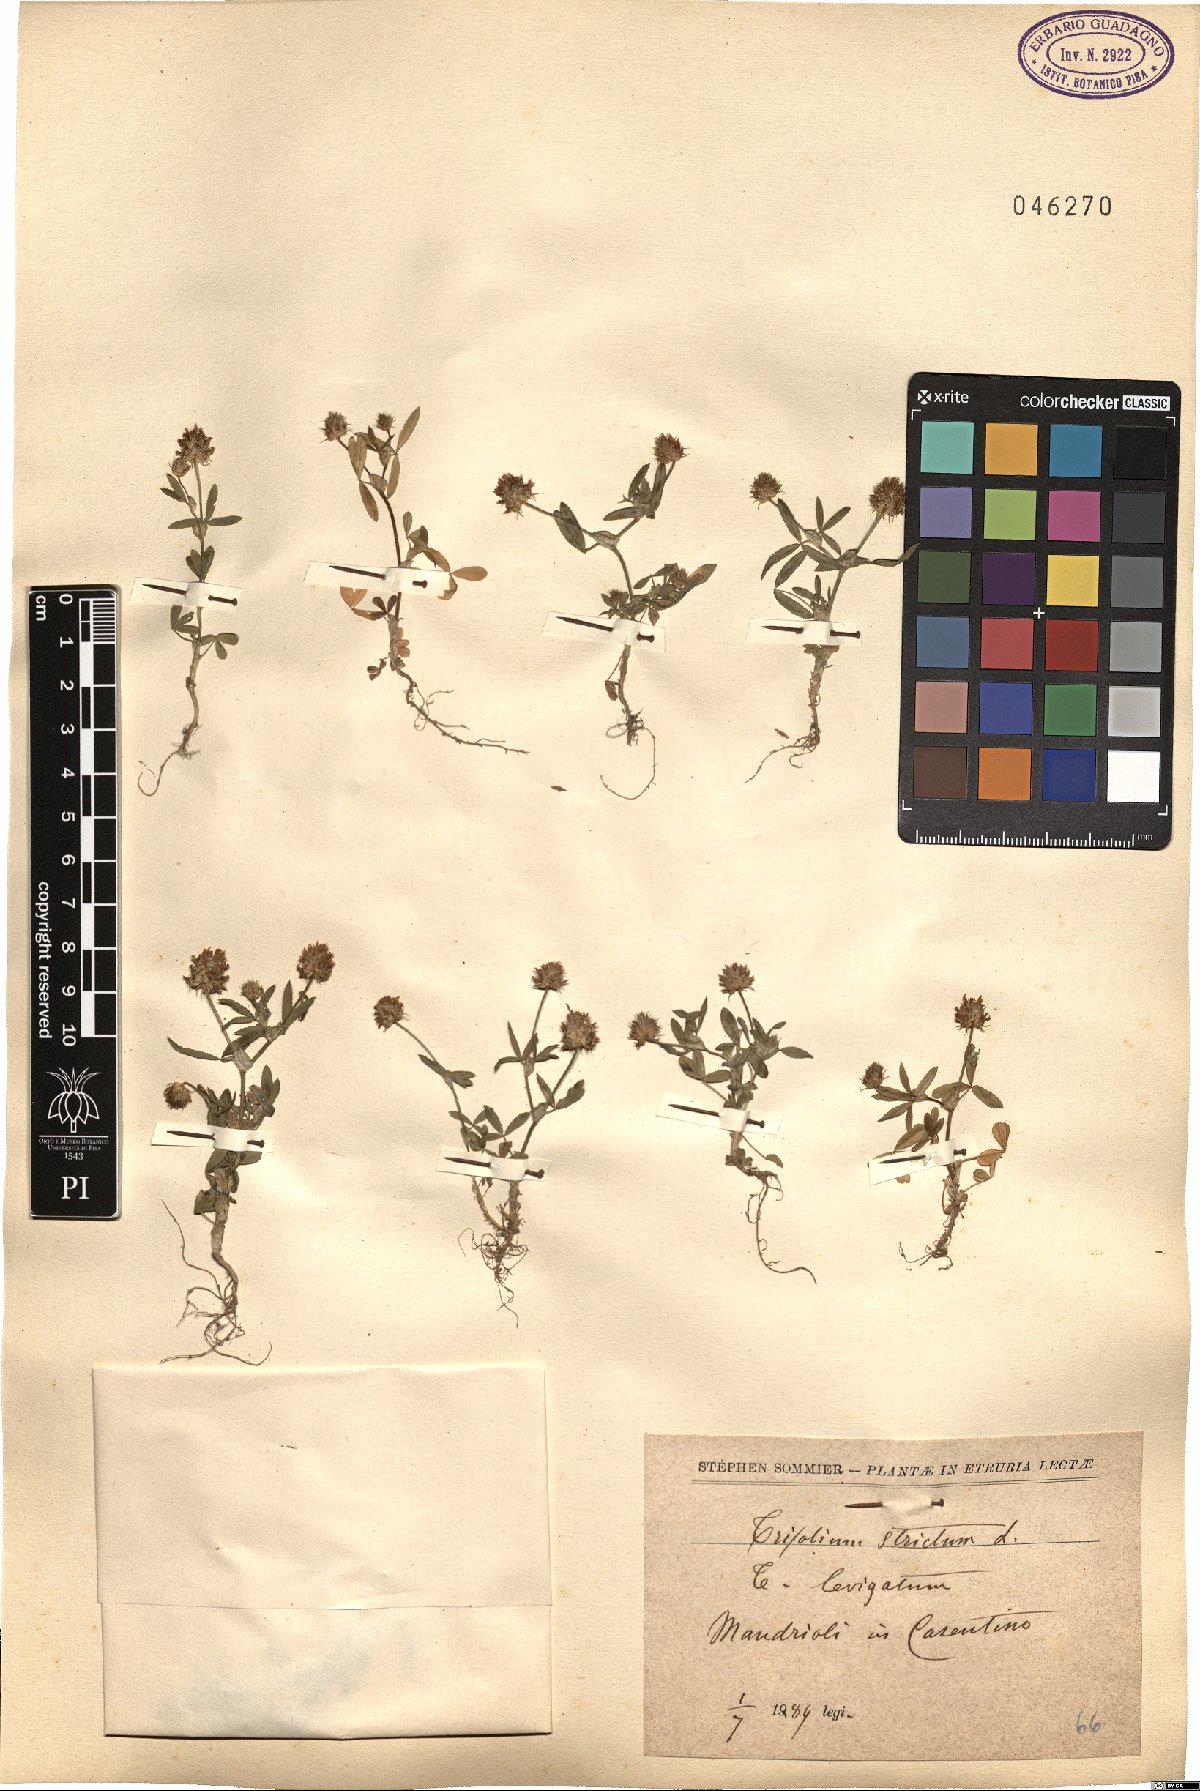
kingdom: Plantae
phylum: Tracheophyta
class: Magnoliopsida
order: Fabales
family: Fabaceae
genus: Trifolium
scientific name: Trifolium strictum
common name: Upright clover
